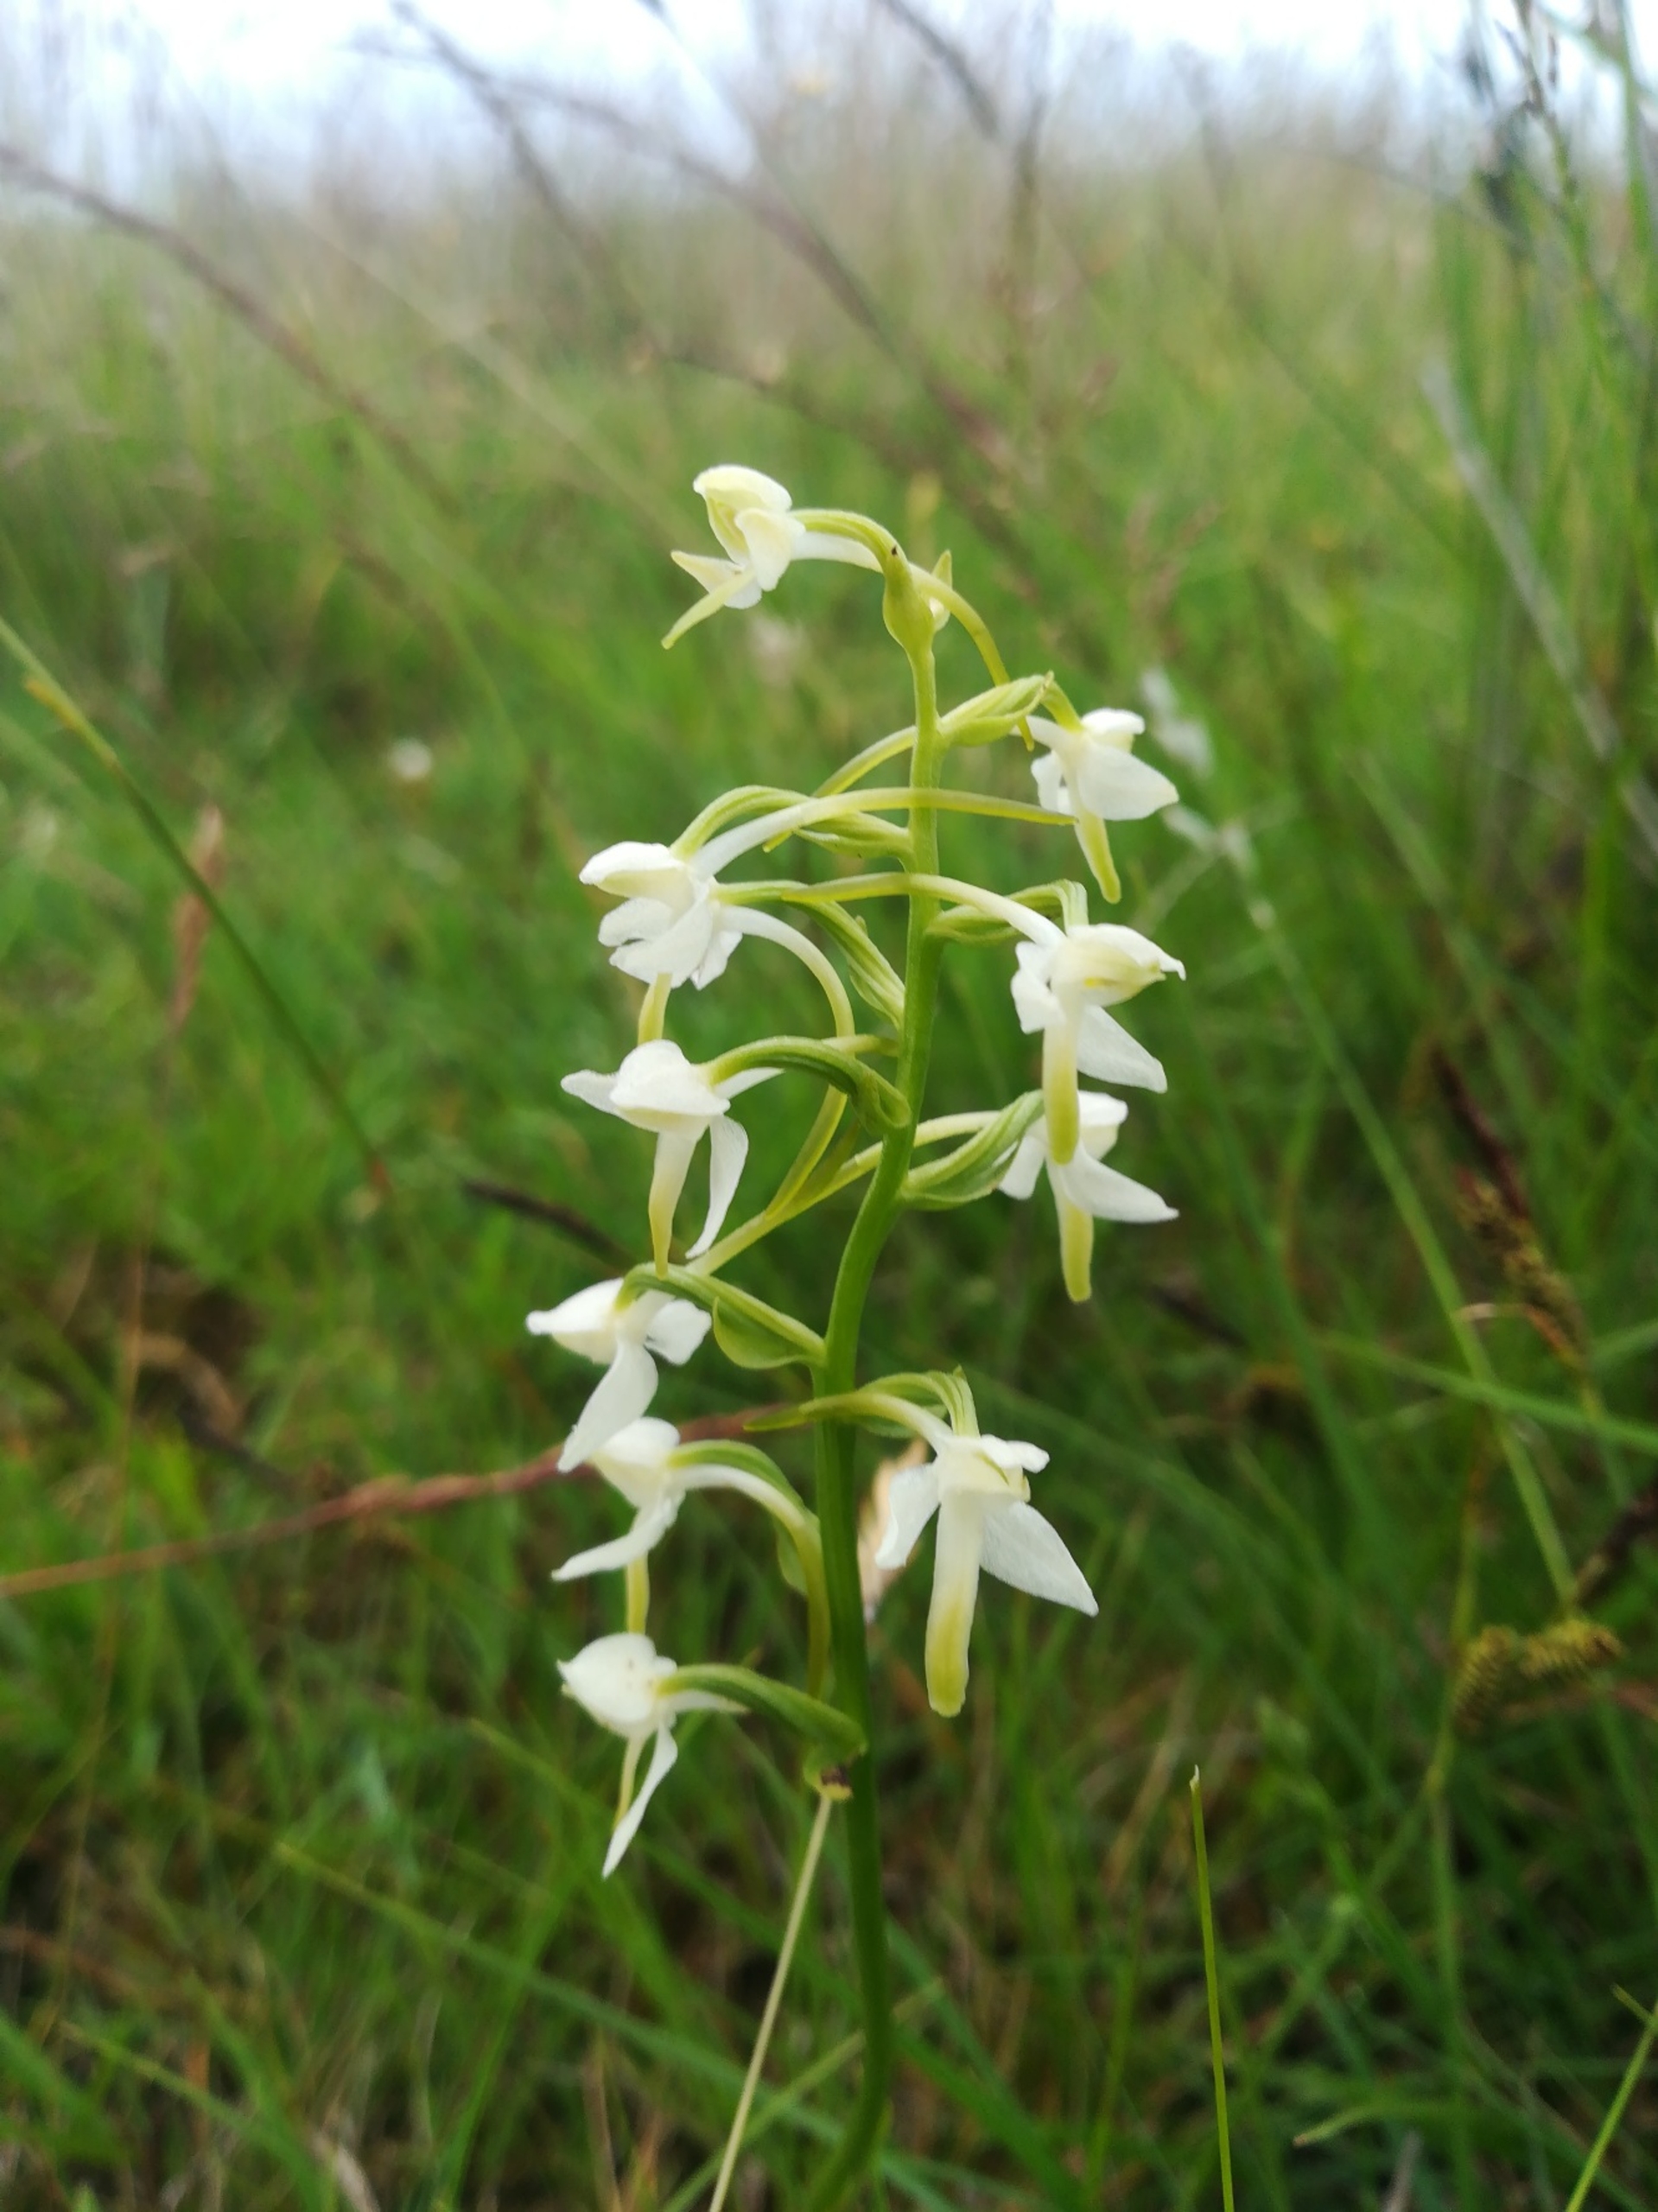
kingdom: Plantae
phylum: Tracheophyta
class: Liliopsida
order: Asparagales
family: Orchidaceae
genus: Platanthera
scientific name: Platanthera bifolia
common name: Bakke-gøgelilje
